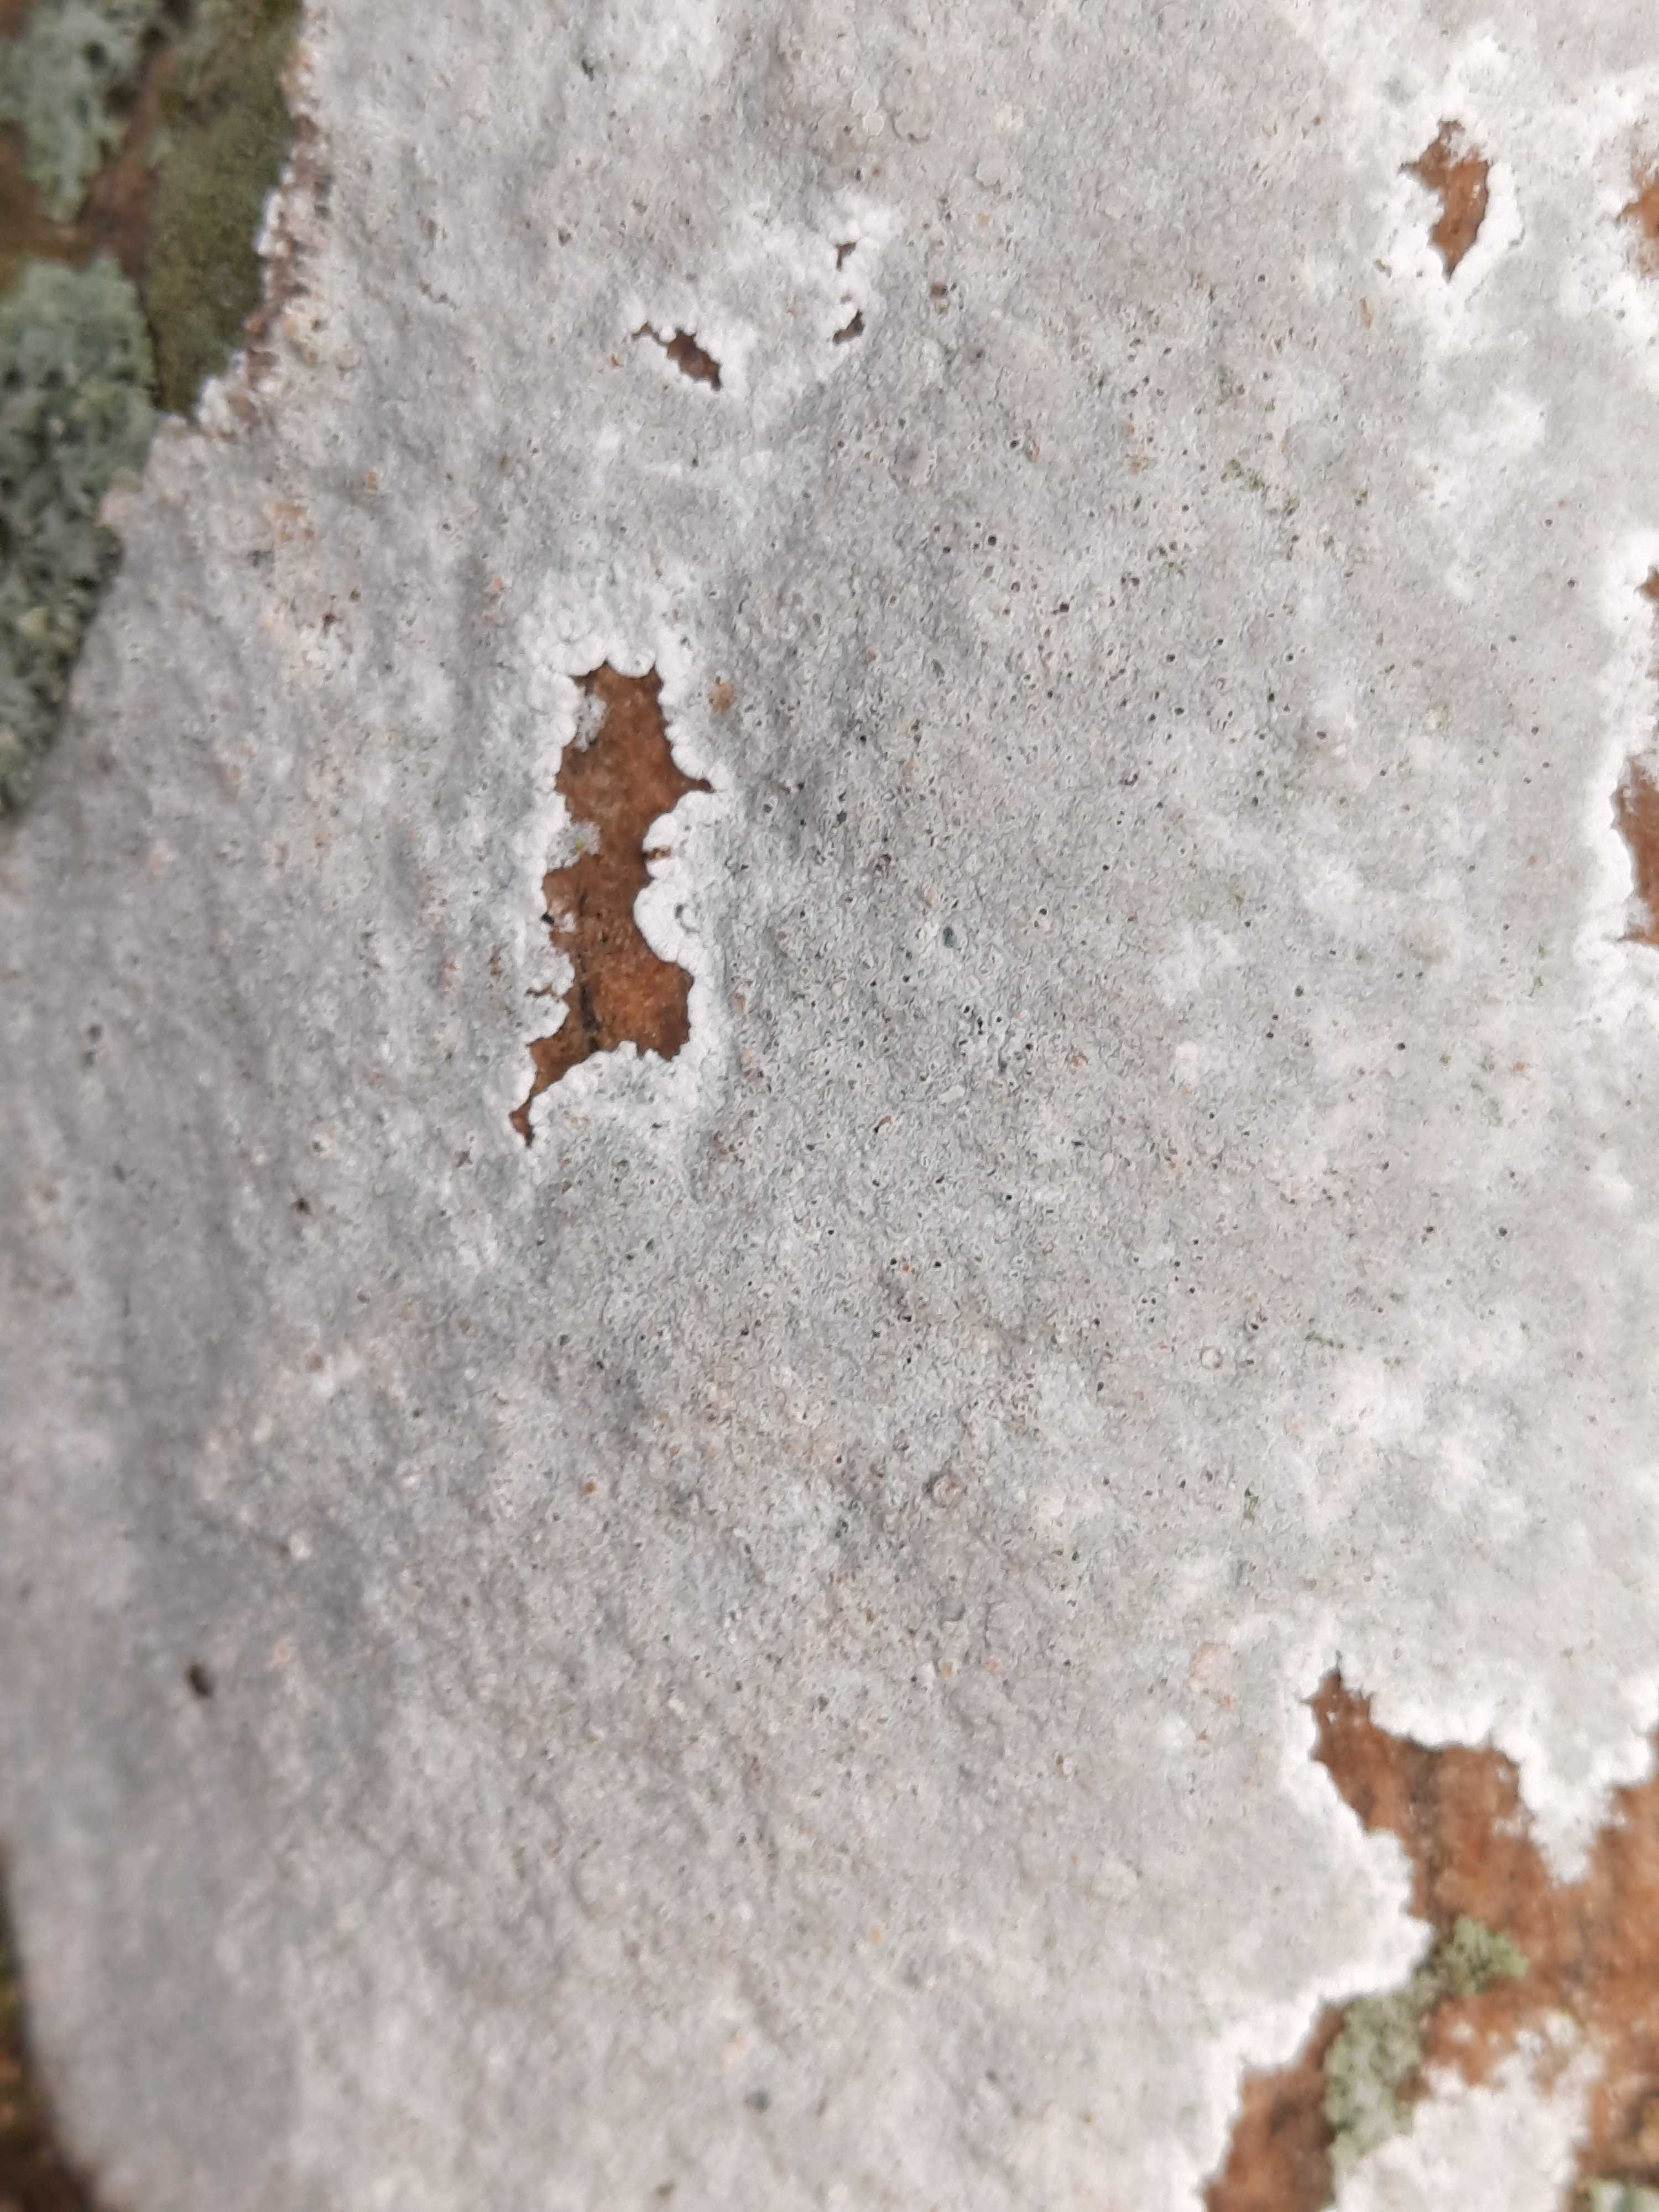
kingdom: Fungi
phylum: Ascomycota
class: Lecanoromycetes
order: Lecanorales
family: Lecanoraceae
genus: Glaucomaria
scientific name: Glaucomaria rupicola
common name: stengærde-kantskivelav
